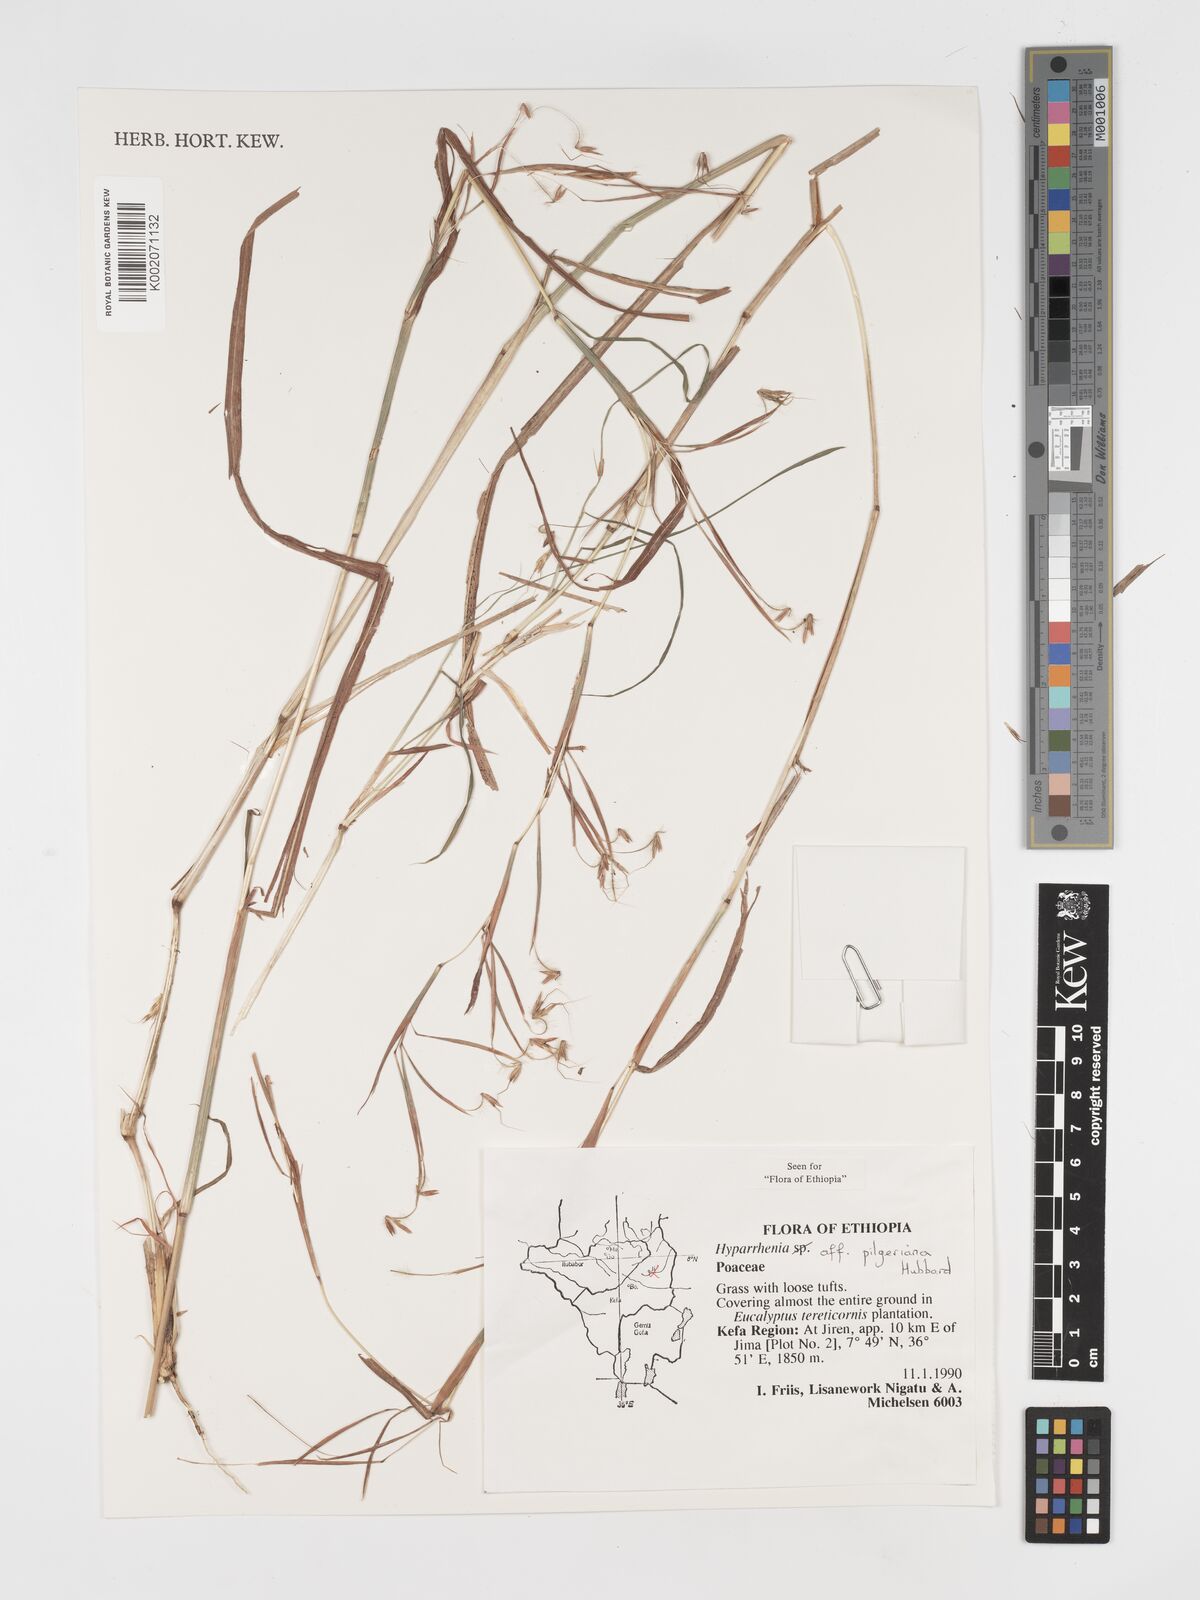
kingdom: Plantae
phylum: Tracheophyta
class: Liliopsida
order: Poales
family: Poaceae
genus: Hyparrhenia
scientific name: Hyparrhenia pilgeriana
